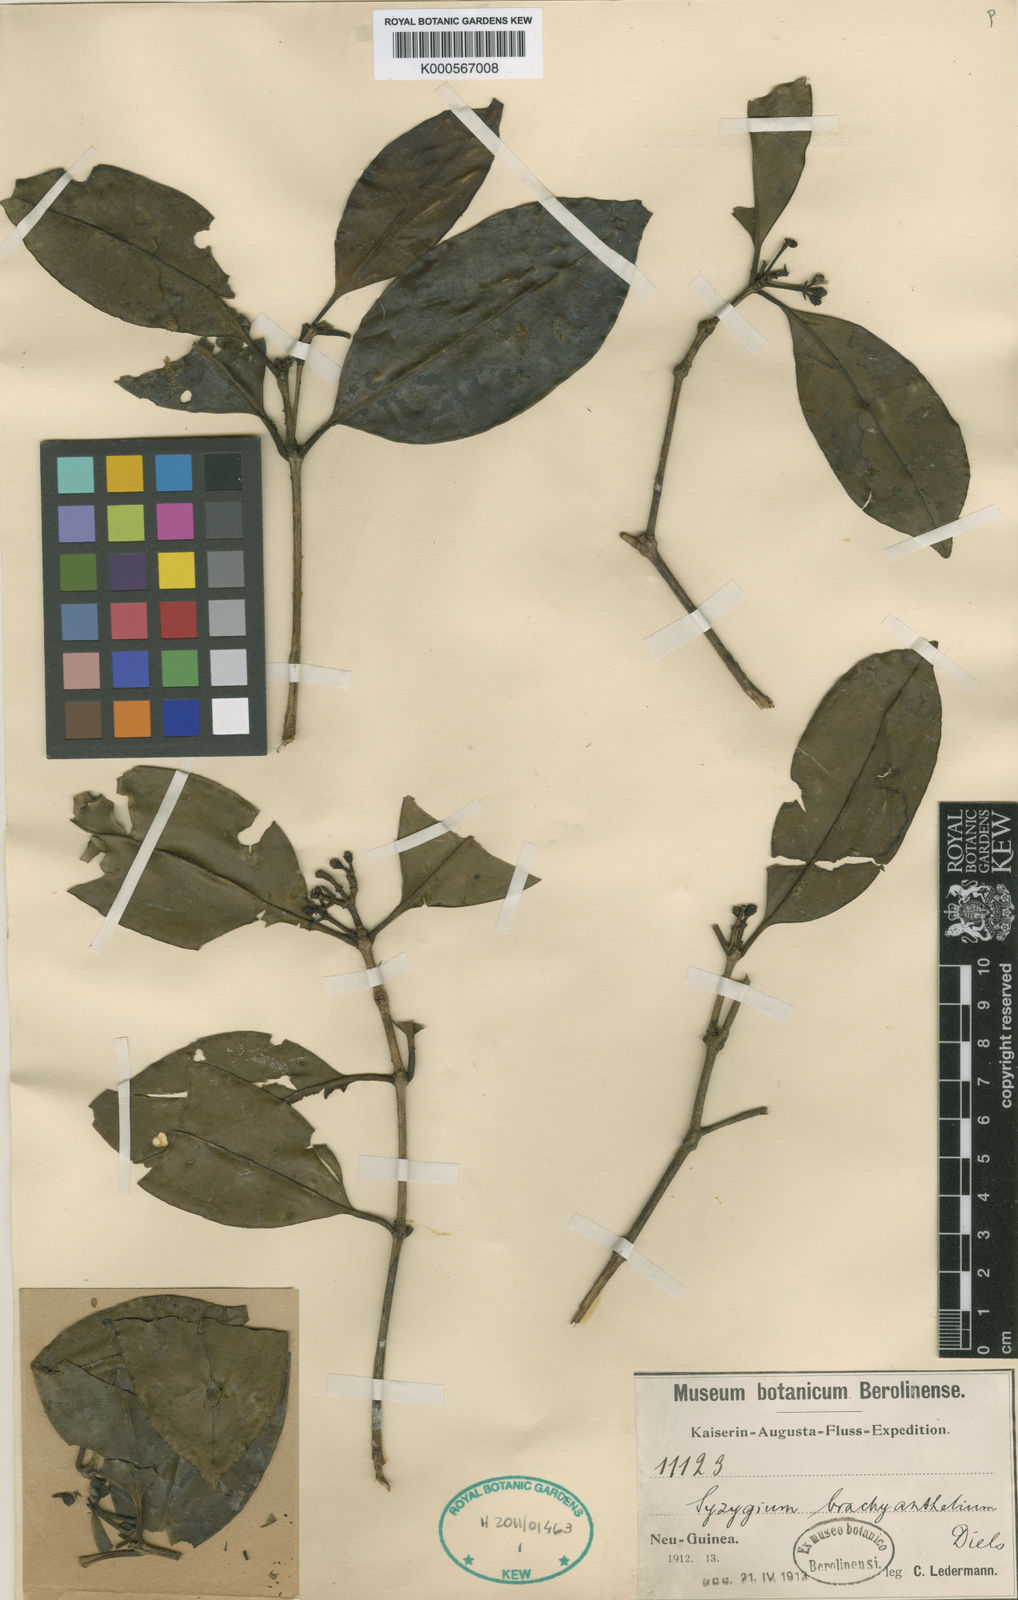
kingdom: Plantae
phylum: Tracheophyta
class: Magnoliopsida
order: Myrtales
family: Myrtaceae
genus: Syzygium
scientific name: Syzygium brachyanthelium
